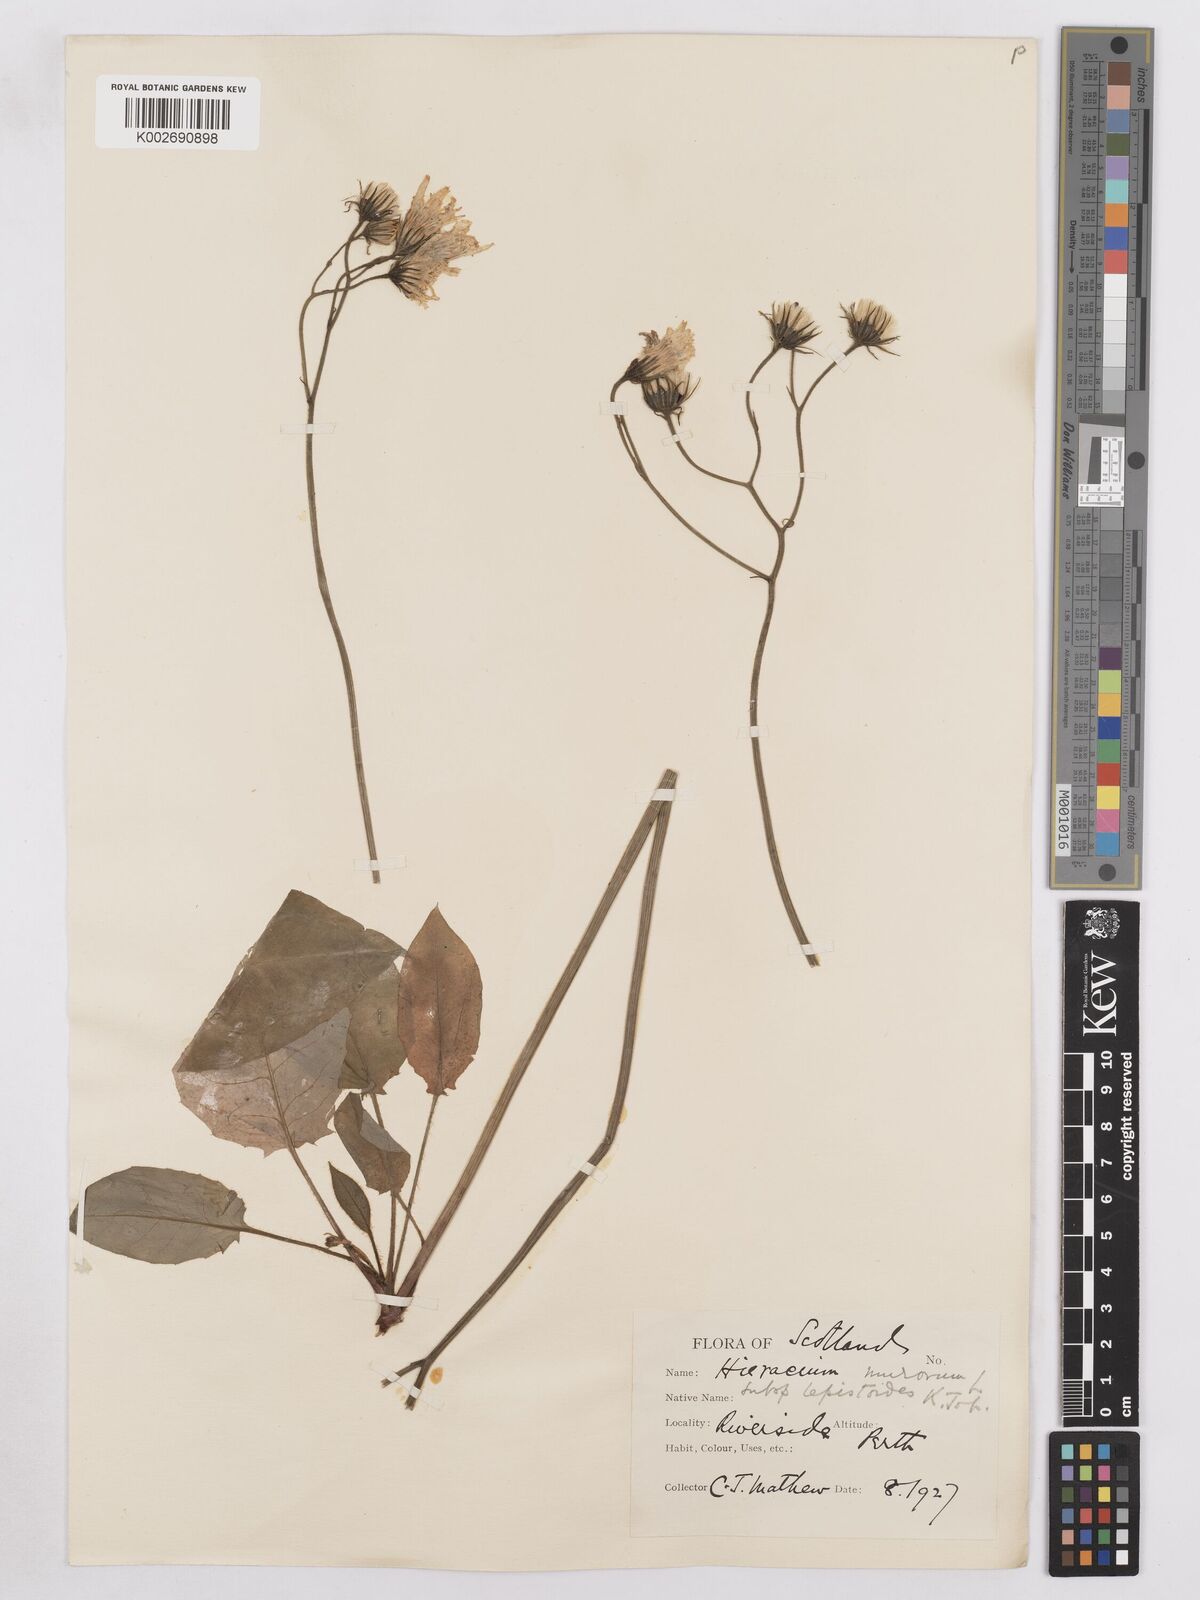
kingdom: Plantae
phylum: Tracheophyta
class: Magnoliopsida
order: Asterales
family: Asteraceae
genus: Hieracium
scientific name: Hieracium murorum
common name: Wall hawkweed
